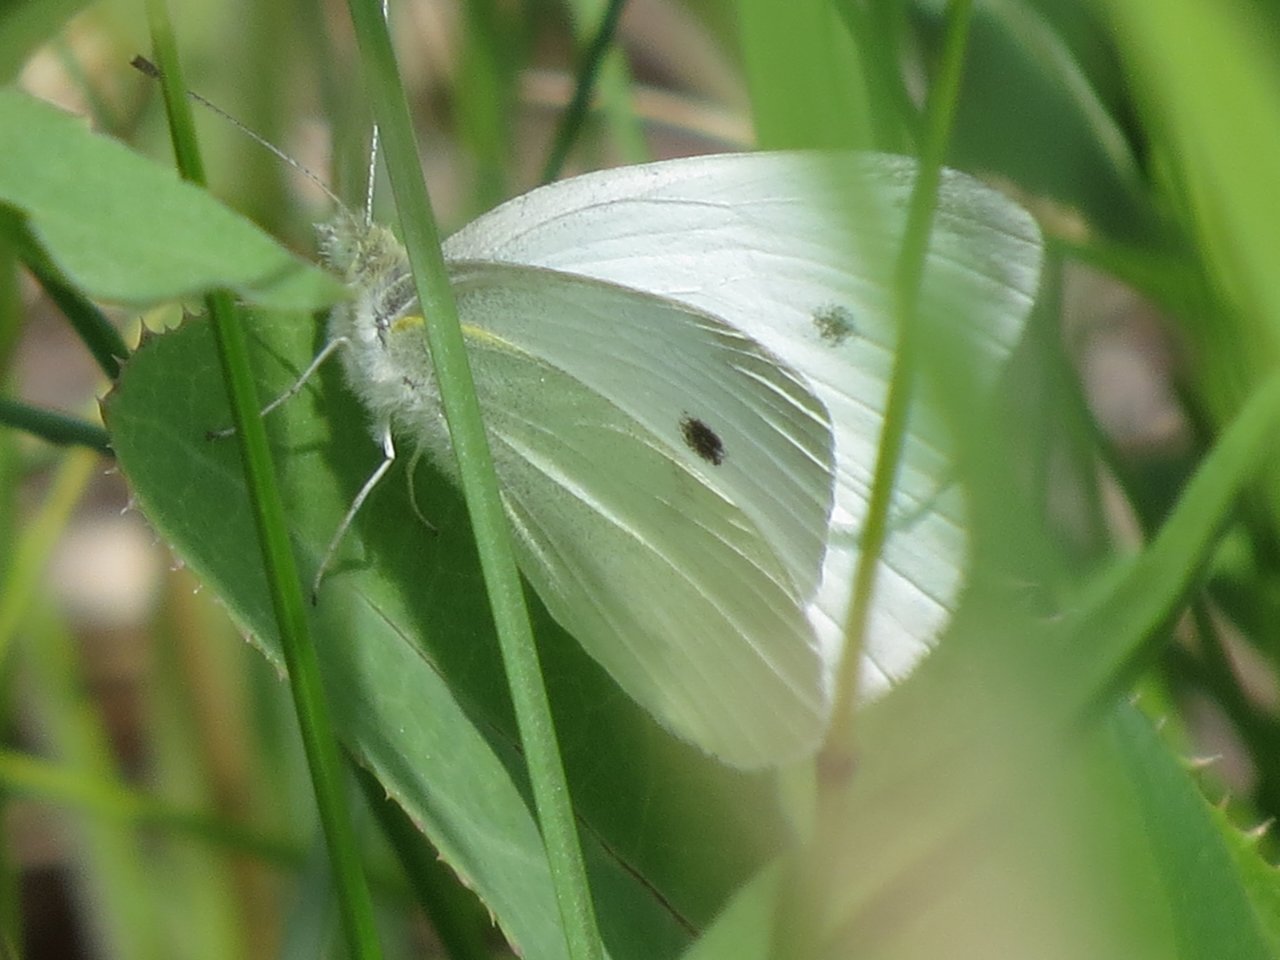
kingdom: Animalia
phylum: Arthropoda
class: Insecta
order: Lepidoptera
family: Pieridae
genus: Pieris
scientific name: Pieris rapae
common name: Cabbage White
